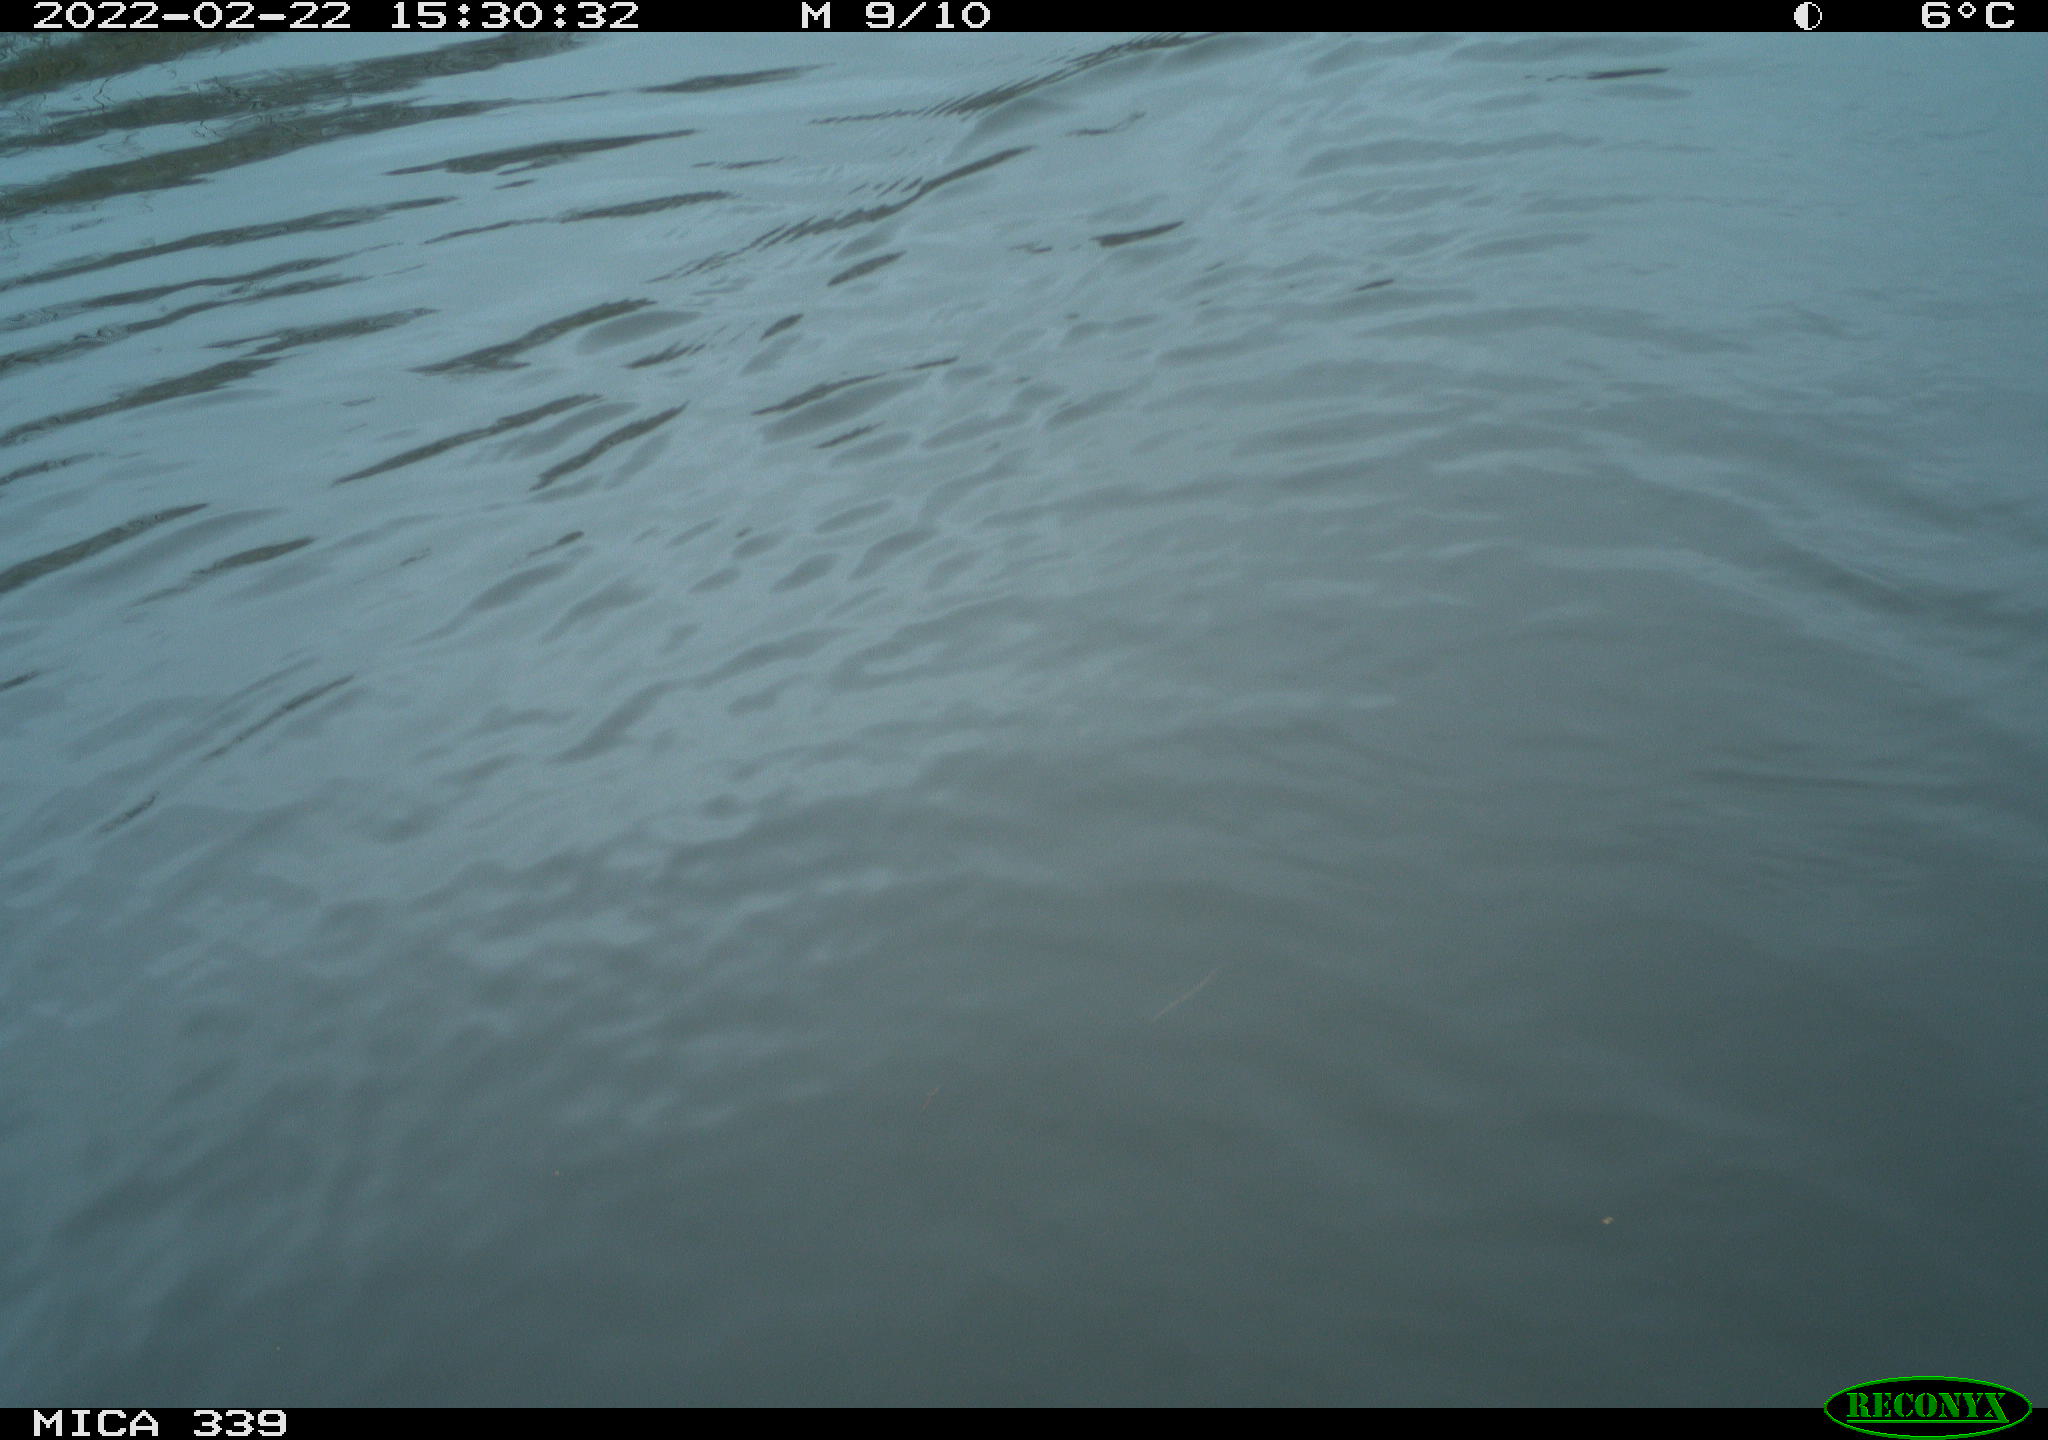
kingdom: Animalia
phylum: Chordata
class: Aves
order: Suliformes
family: Phalacrocoracidae
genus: Phalacrocorax
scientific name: Phalacrocorax carbo
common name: Great cormorant
